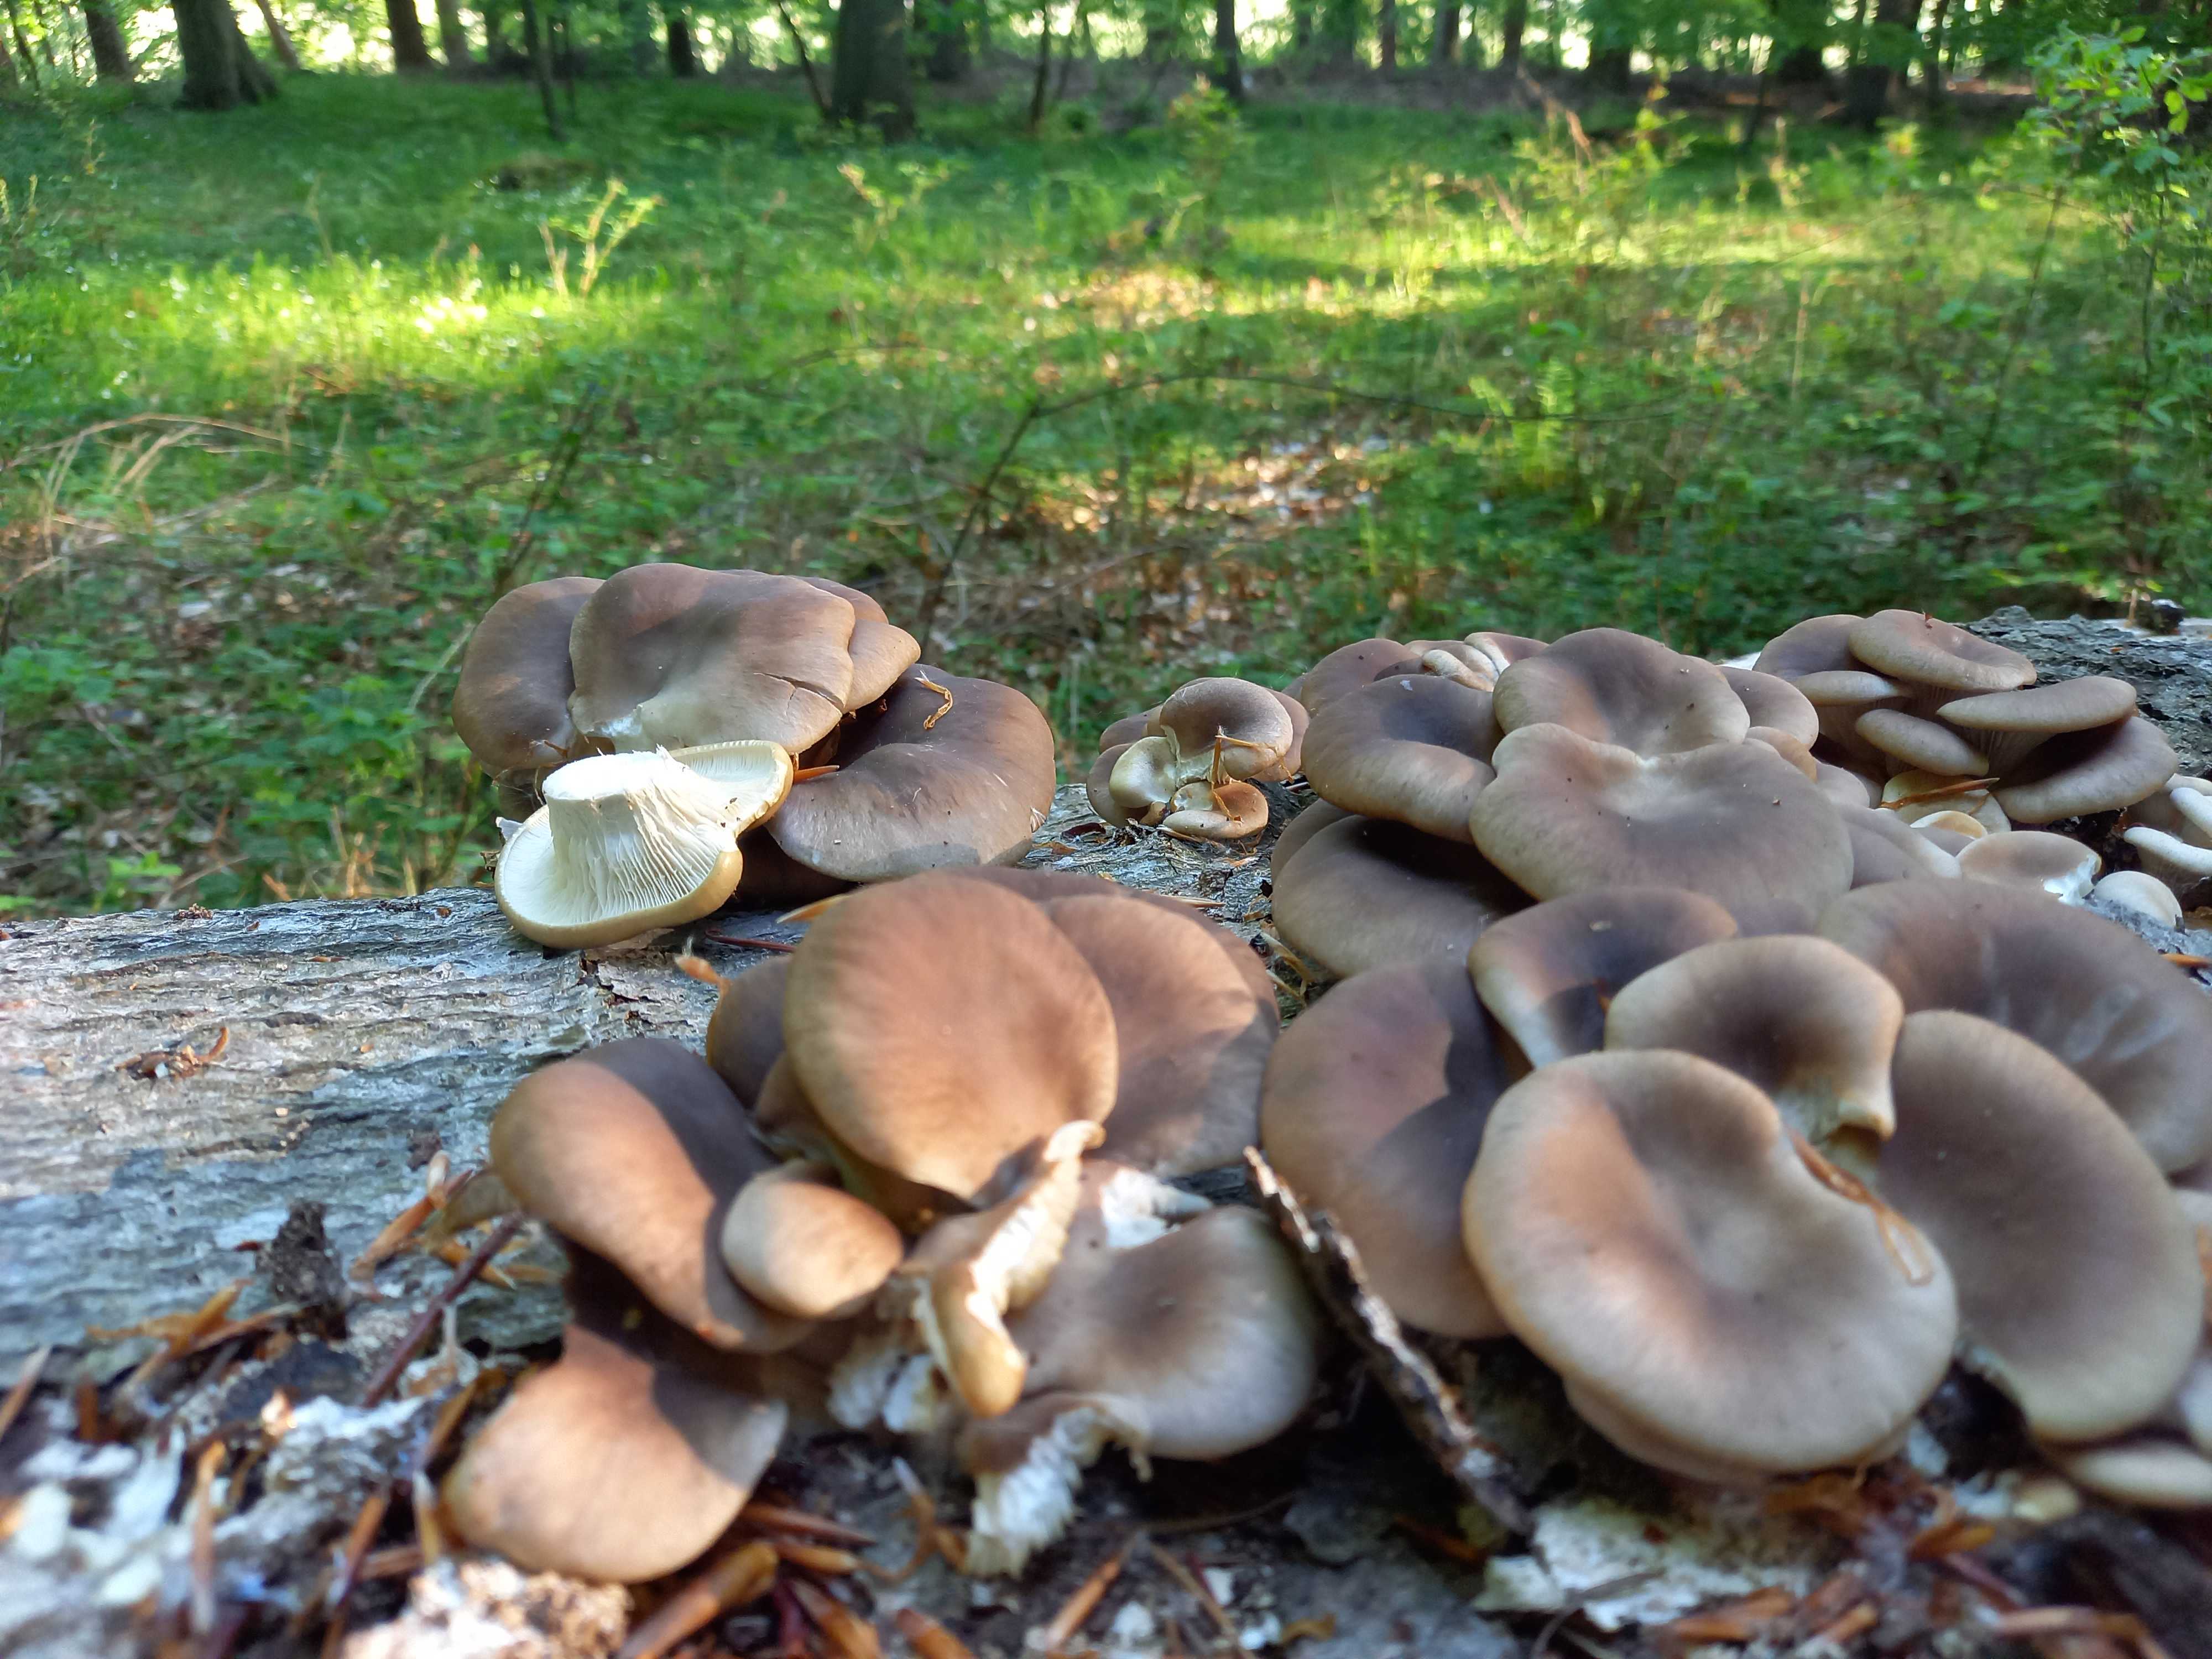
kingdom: Fungi
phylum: Basidiomycota
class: Agaricomycetes
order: Agaricales
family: Pleurotaceae
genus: Pleurotus
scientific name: Pleurotus ostreatus
